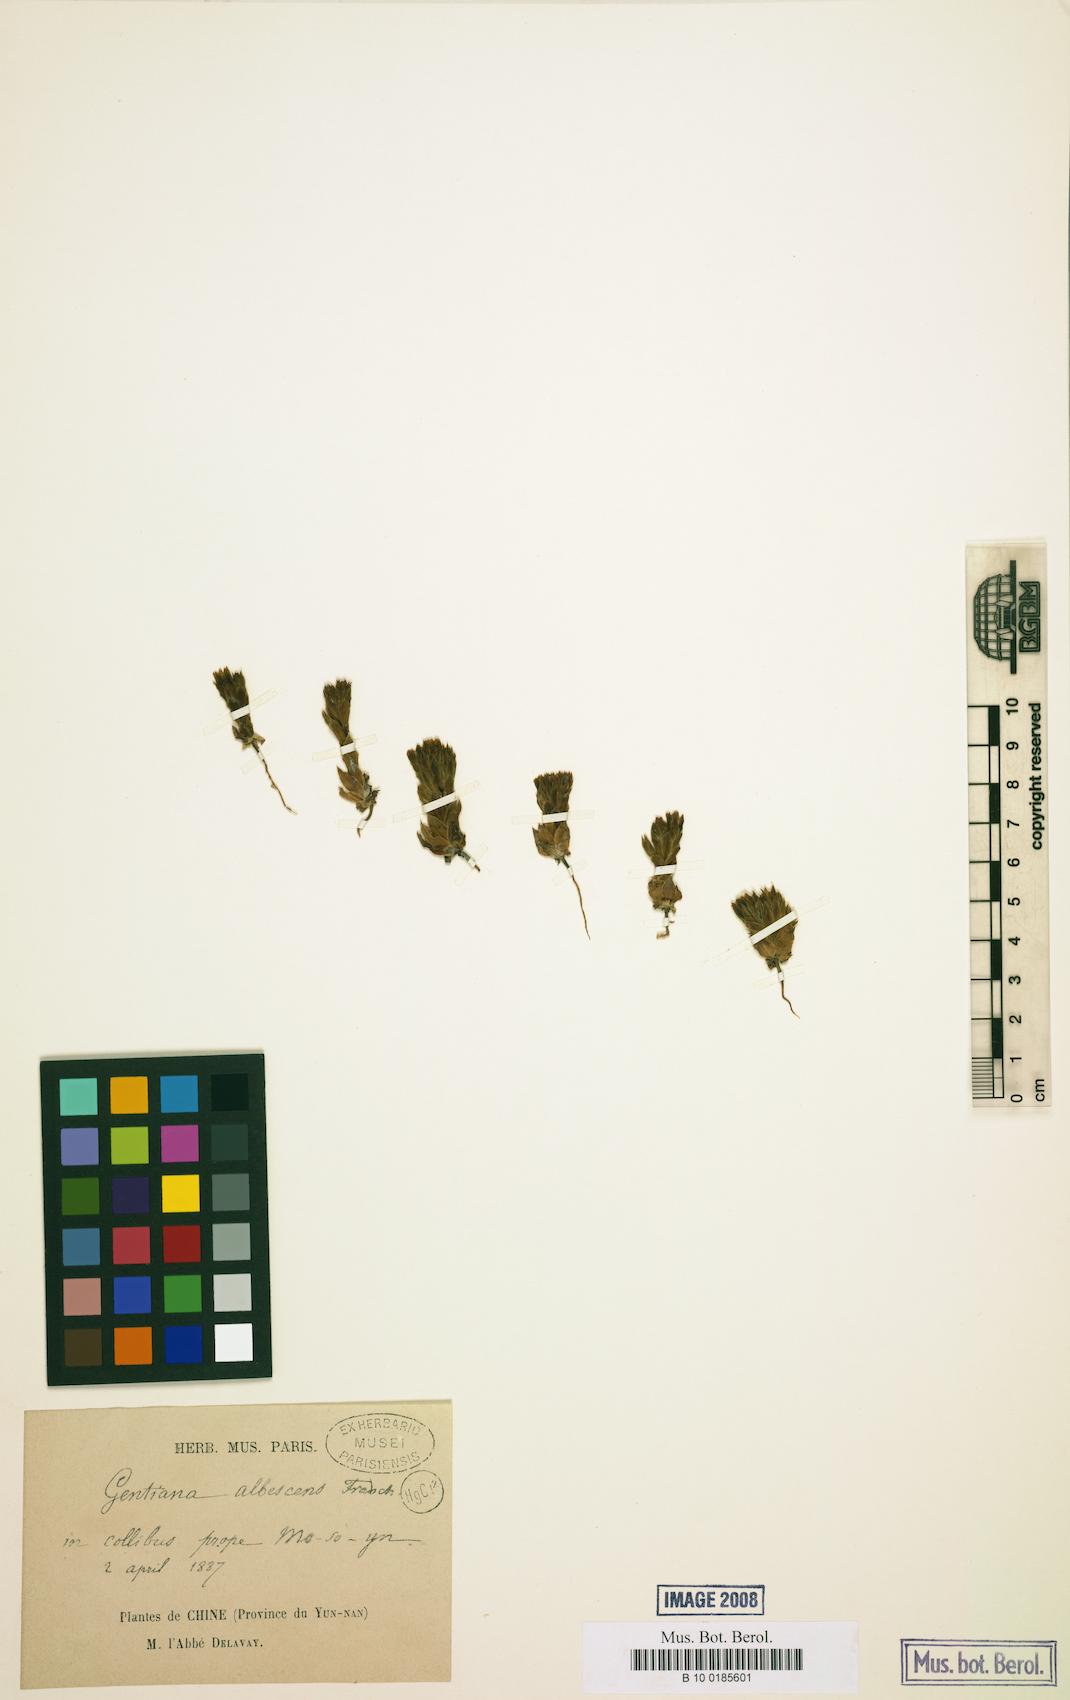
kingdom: Plantae
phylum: Tracheophyta
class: Magnoliopsida
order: Gentianales
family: Gentianaceae
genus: Gentiana
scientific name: Gentiana albescens
